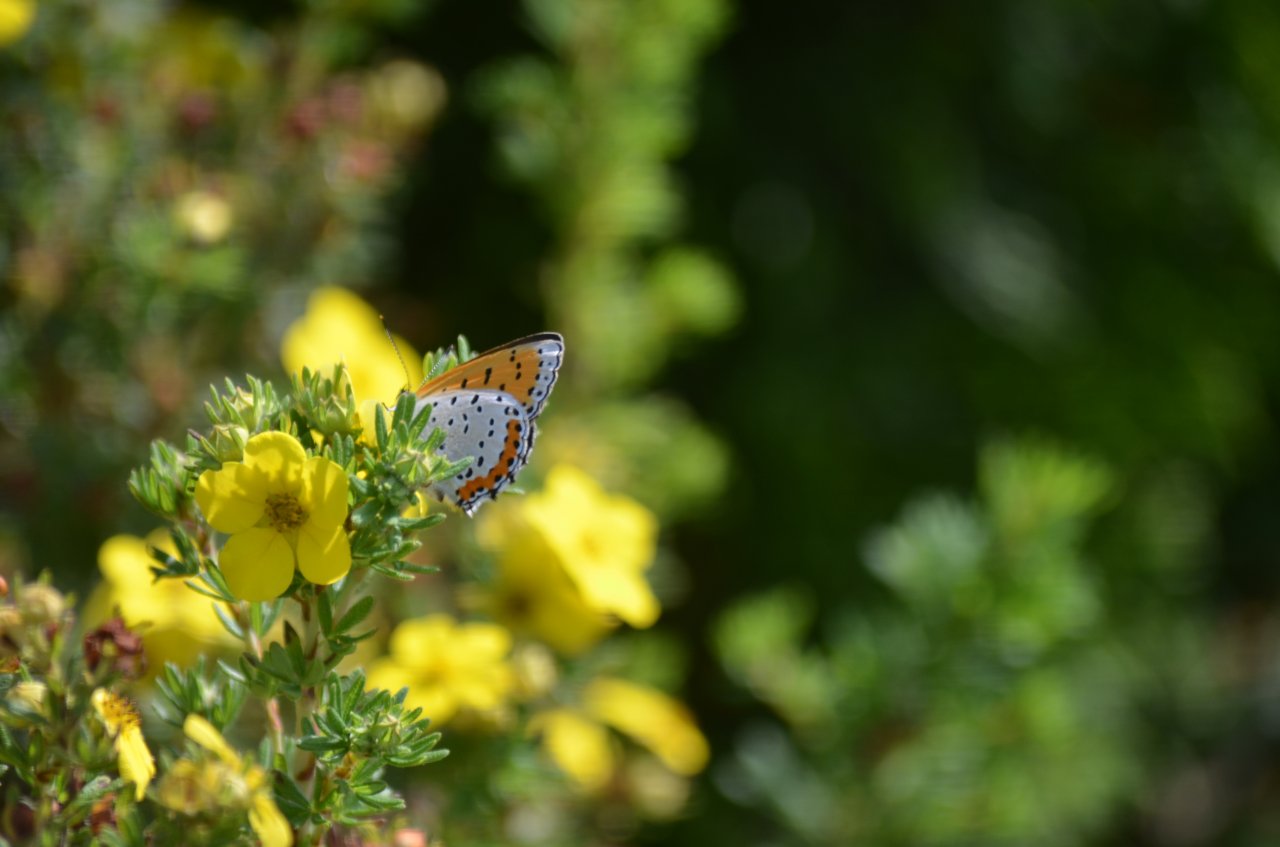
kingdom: Animalia
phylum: Arthropoda
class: Insecta
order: Lepidoptera
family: Sesiidae
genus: Sesia
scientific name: Sesia Lycaena hyllus
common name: Bronze Copper
